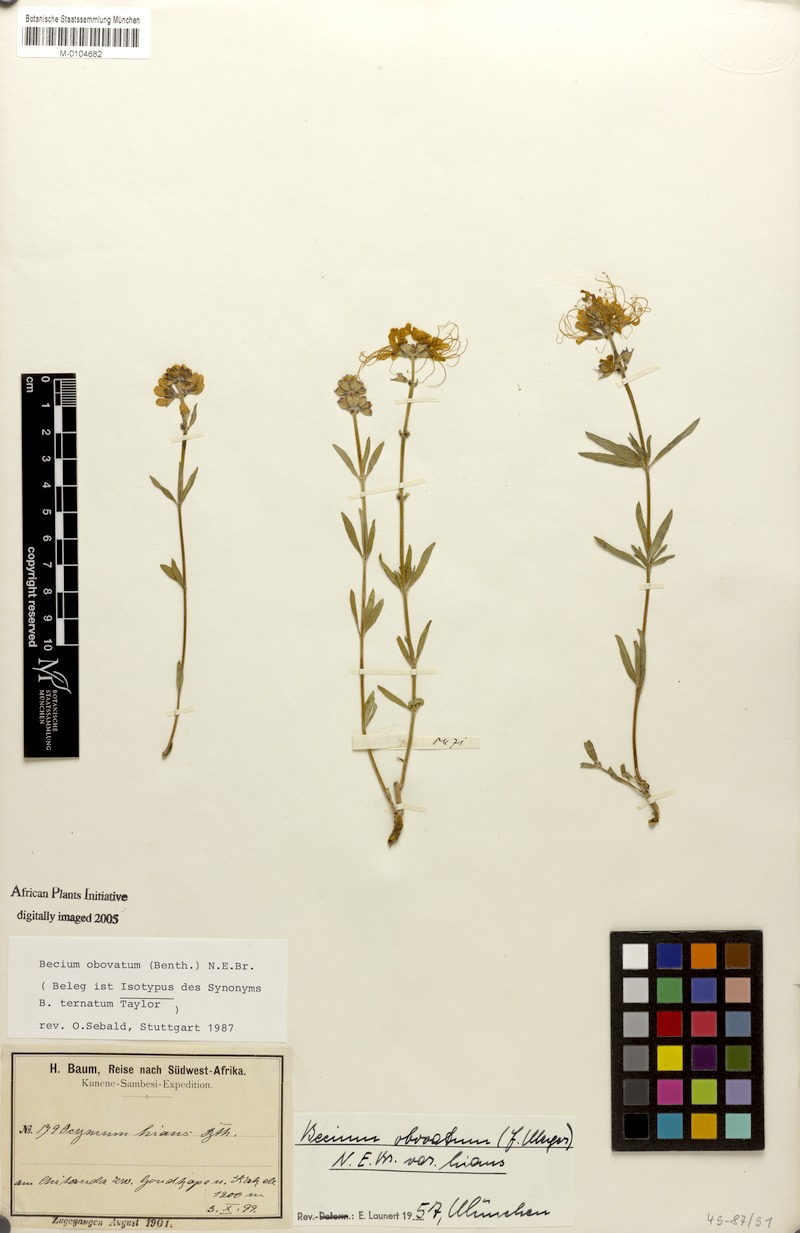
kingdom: Plantae
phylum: Tracheophyta
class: Magnoliopsida
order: Lamiales
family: Lamiaceae
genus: Ocimum
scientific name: Ocimum obovatum
